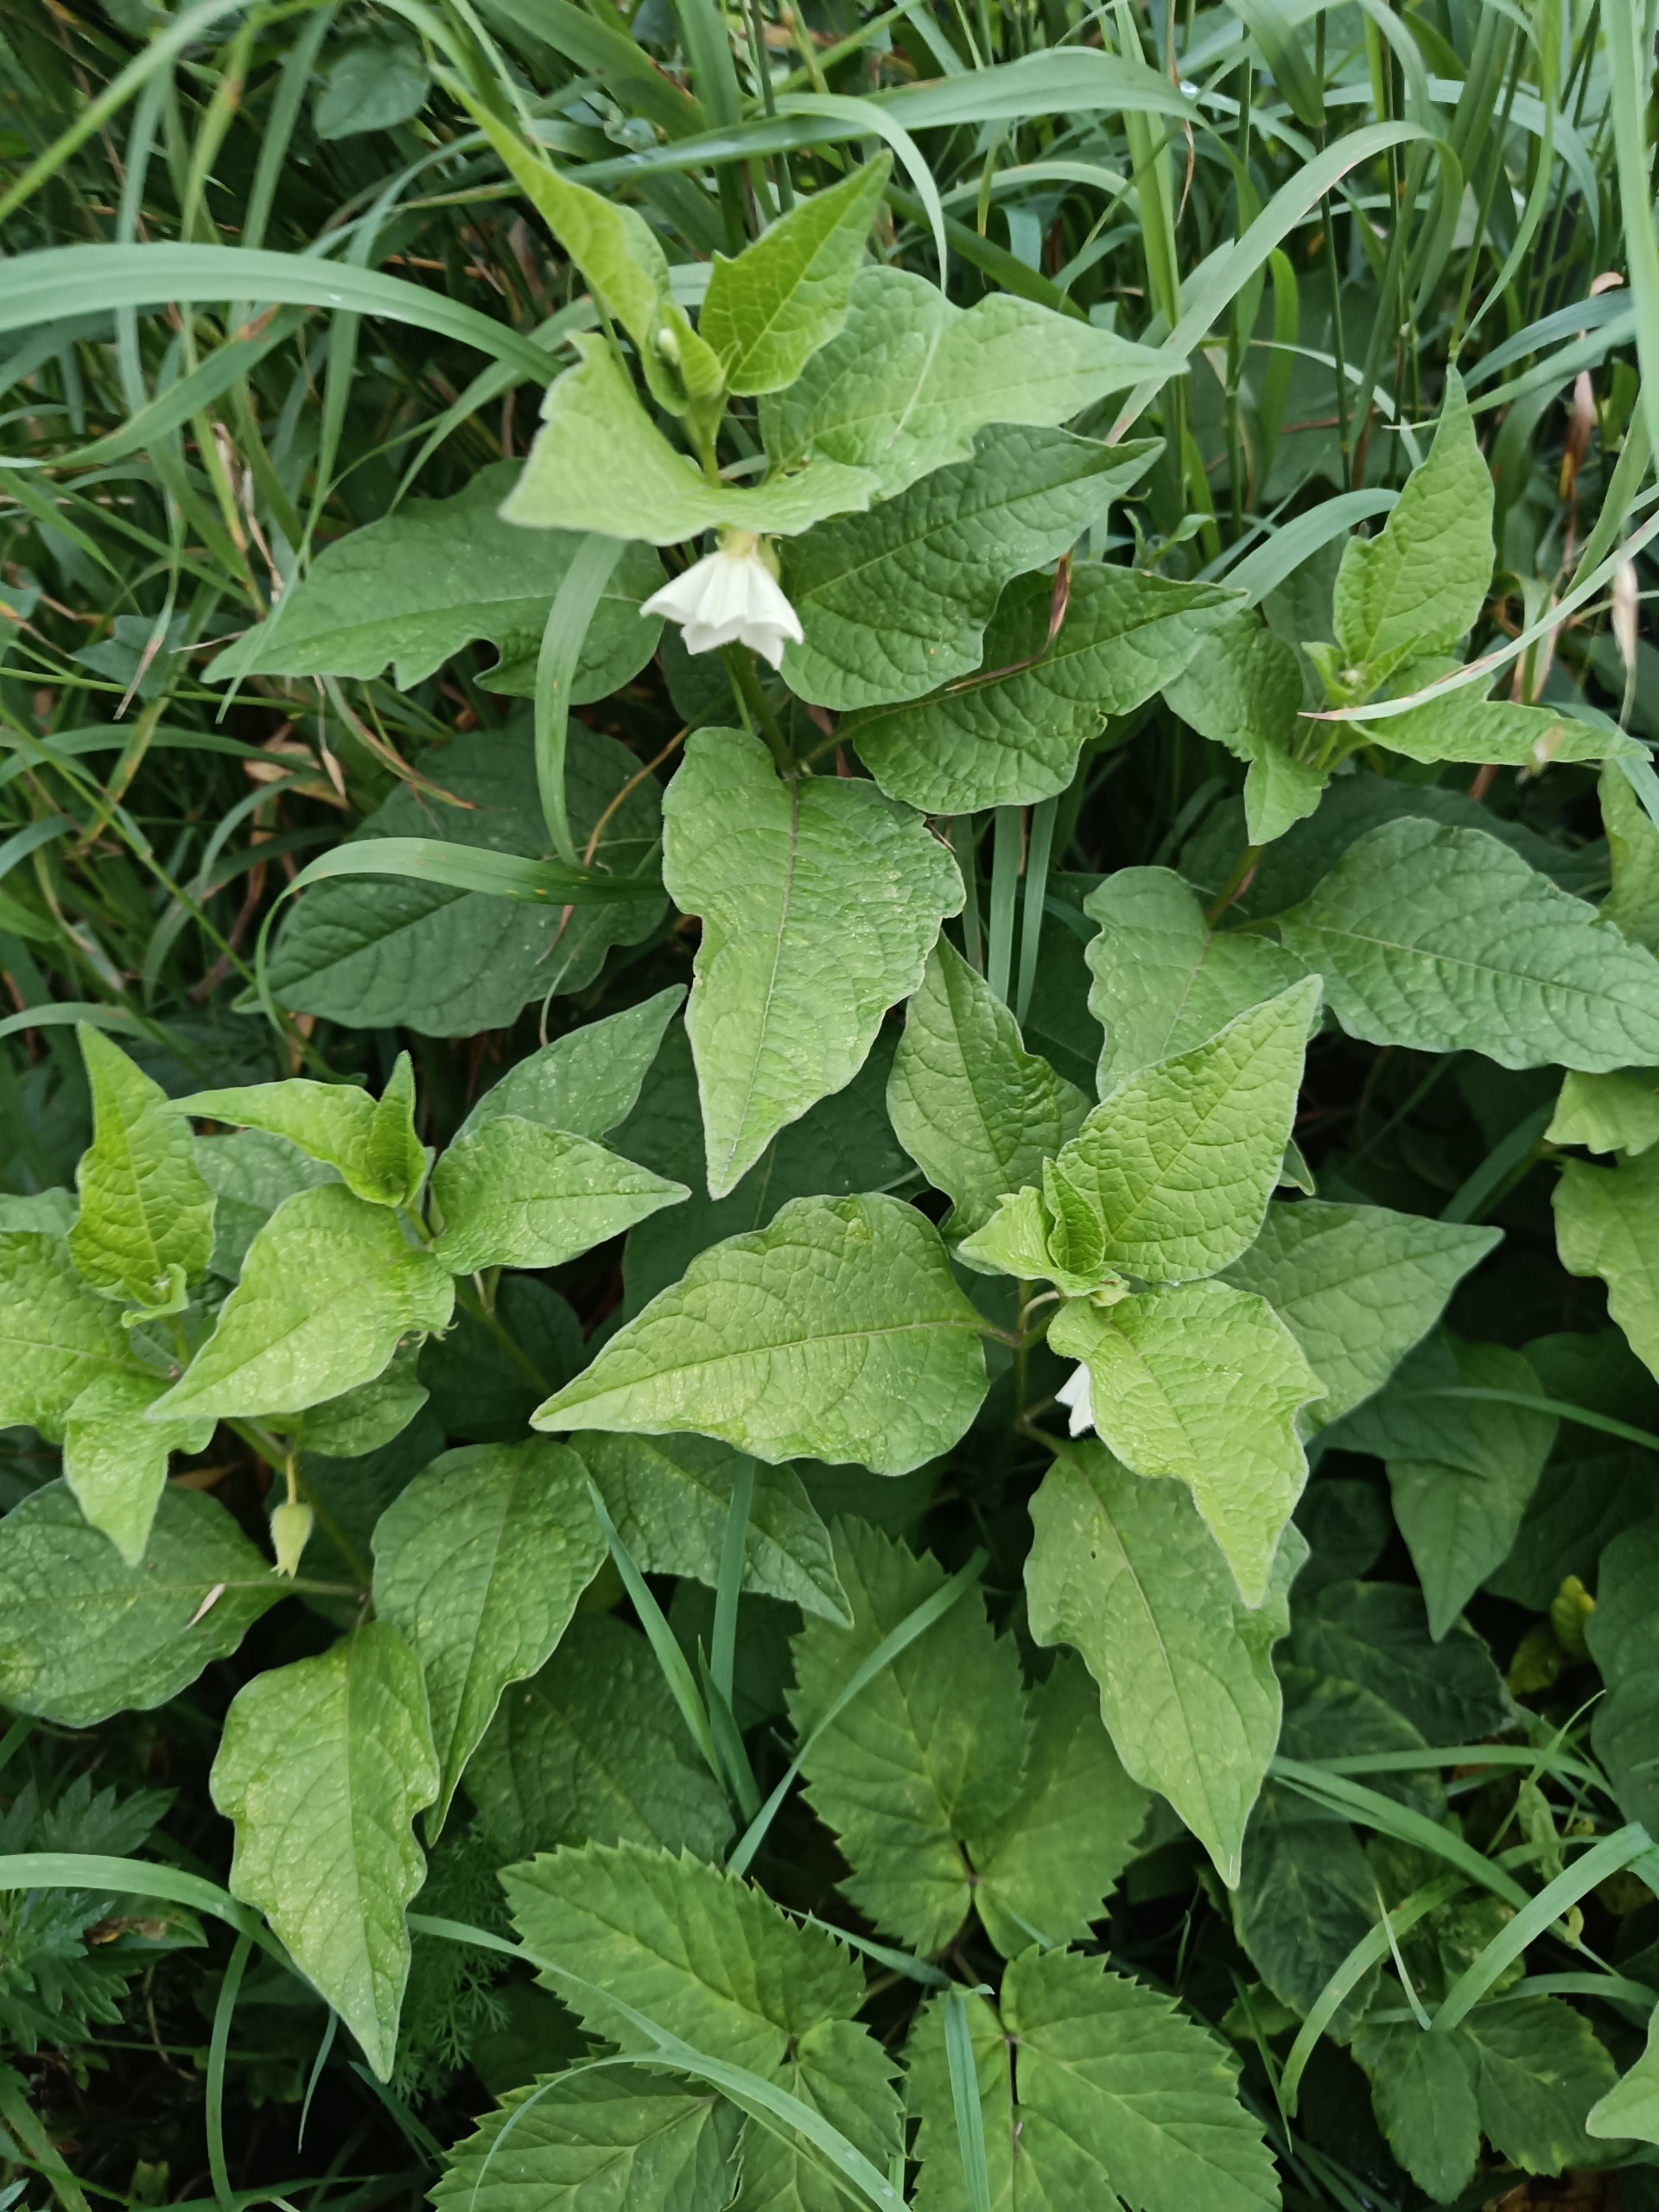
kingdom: Plantae
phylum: Tracheophyta
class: Magnoliopsida
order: Solanales
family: Solanaceae
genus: Alkekengi
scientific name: Alkekengi officinarum
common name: Jødekirsebær
